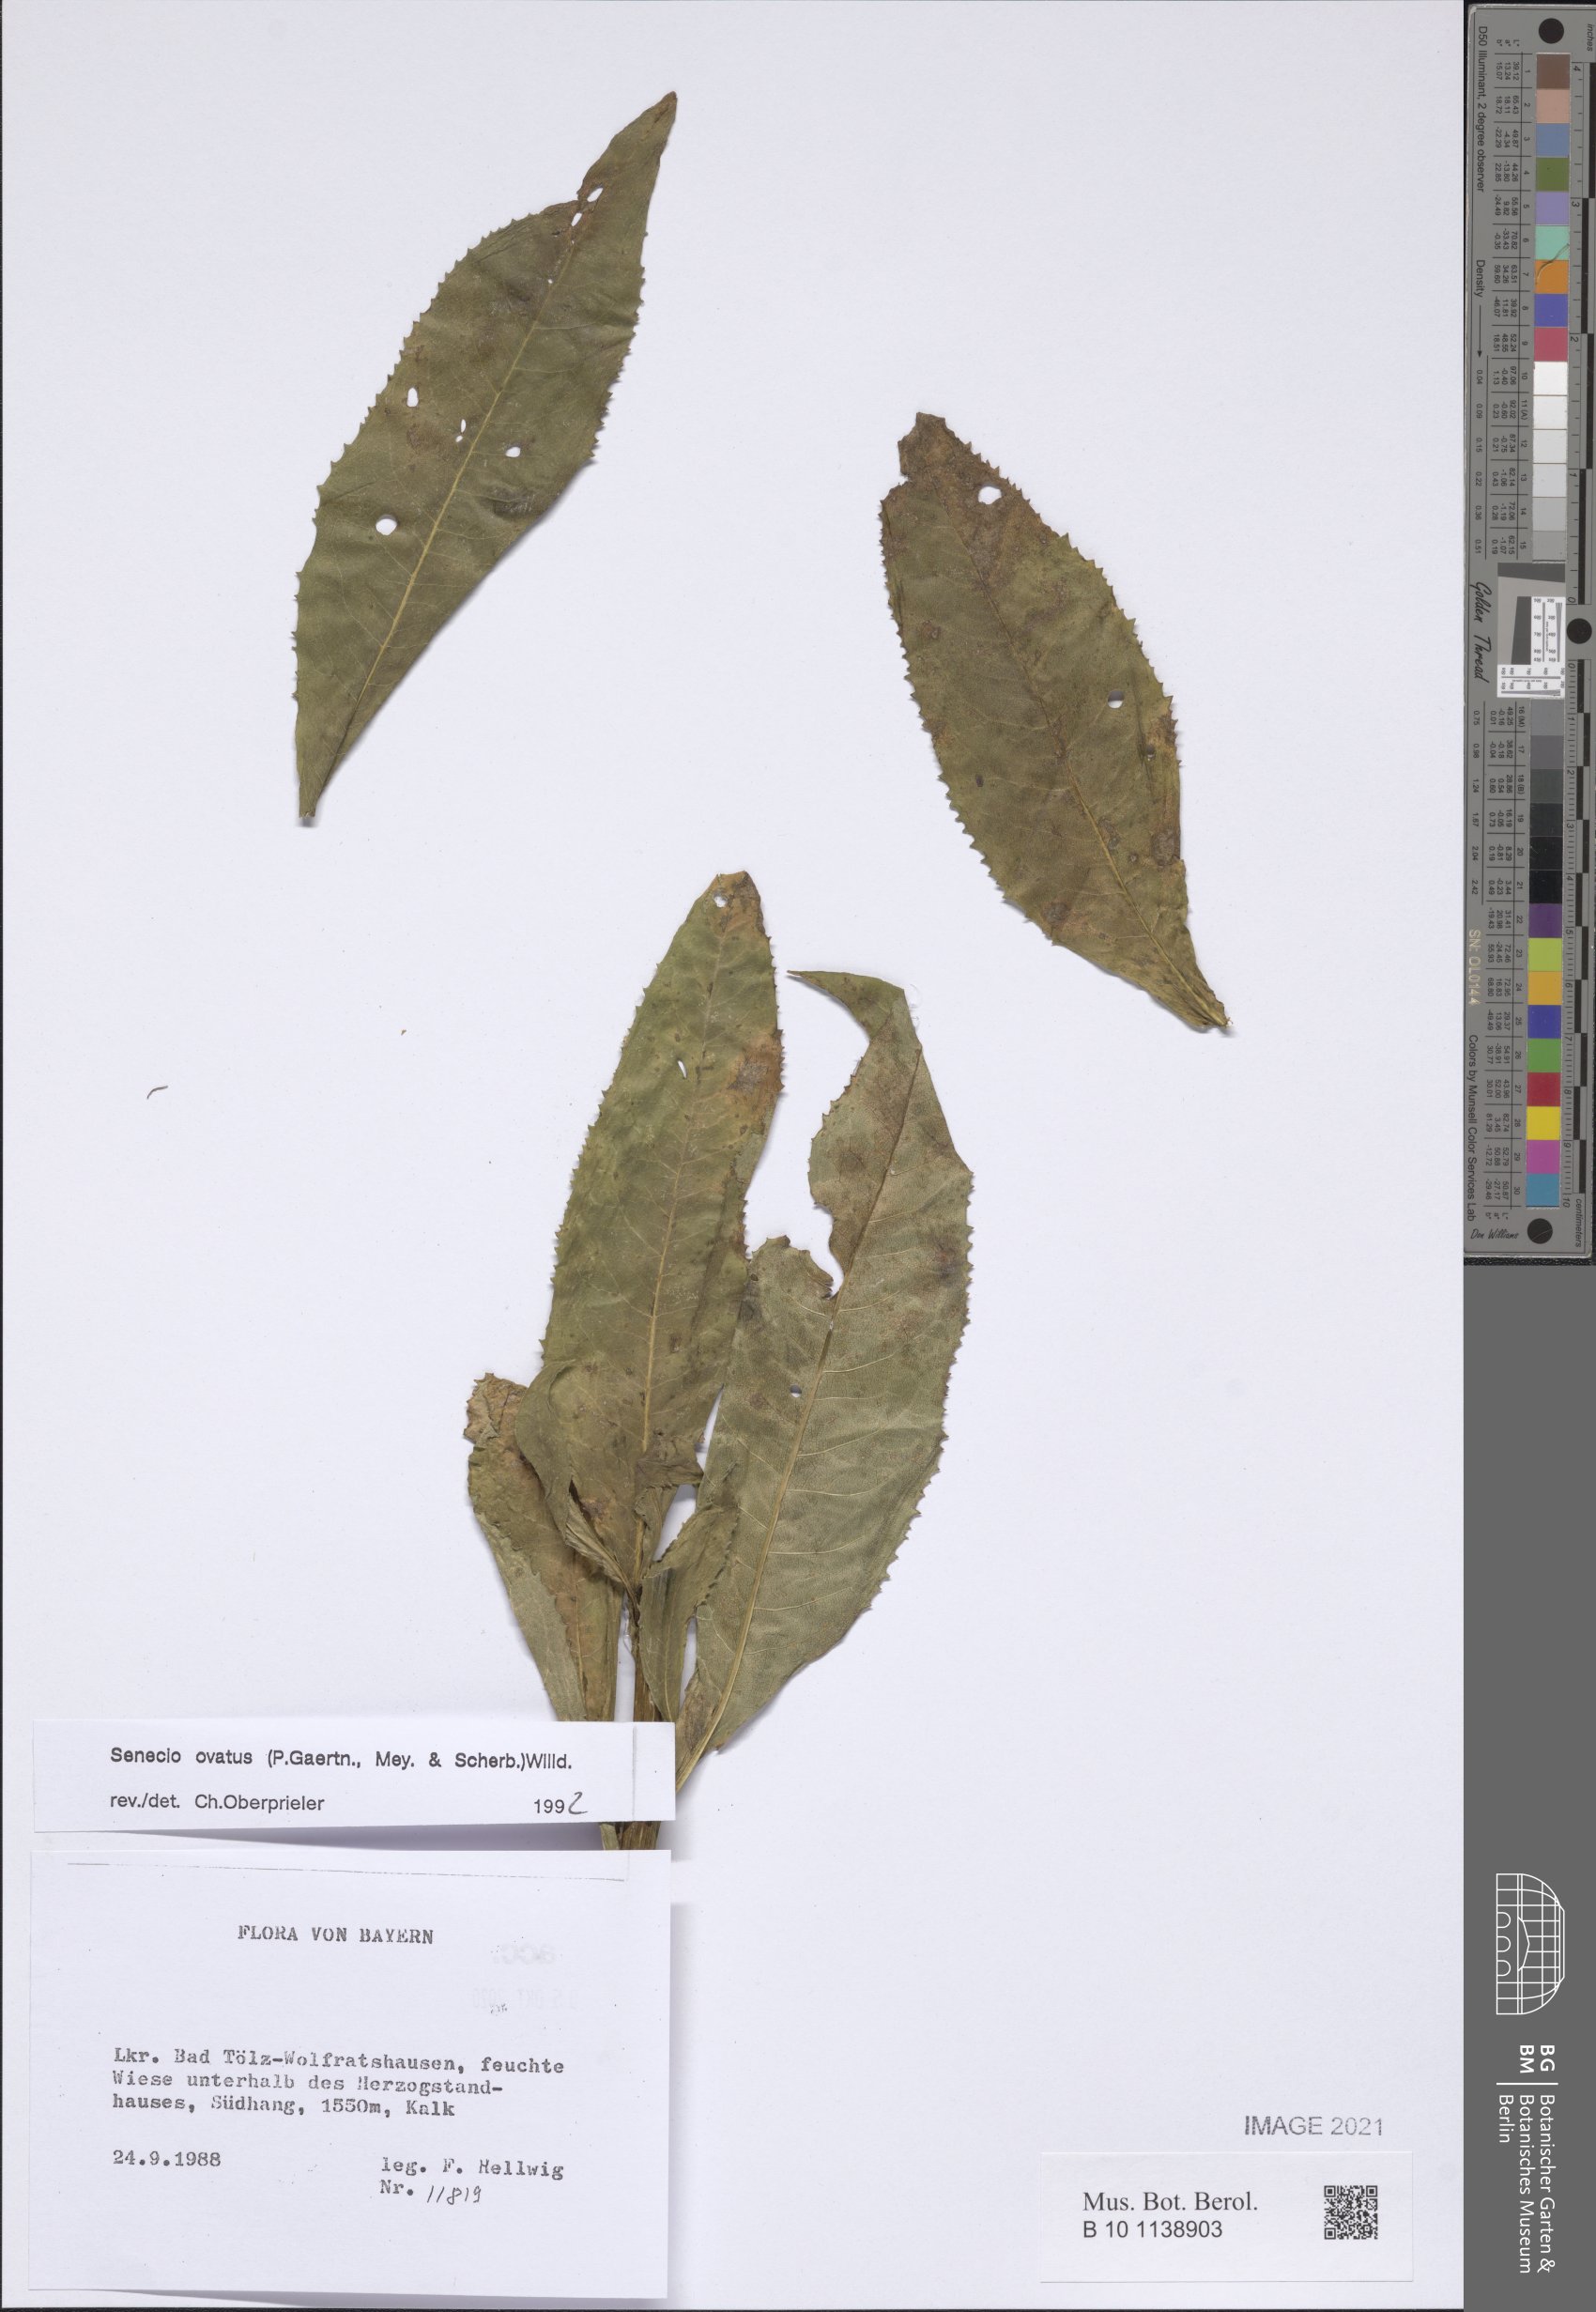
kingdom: Plantae
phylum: Tracheophyta
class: Magnoliopsida
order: Asterales
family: Asteraceae
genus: Senecio
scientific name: Senecio ovatus
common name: Wood ragwort
